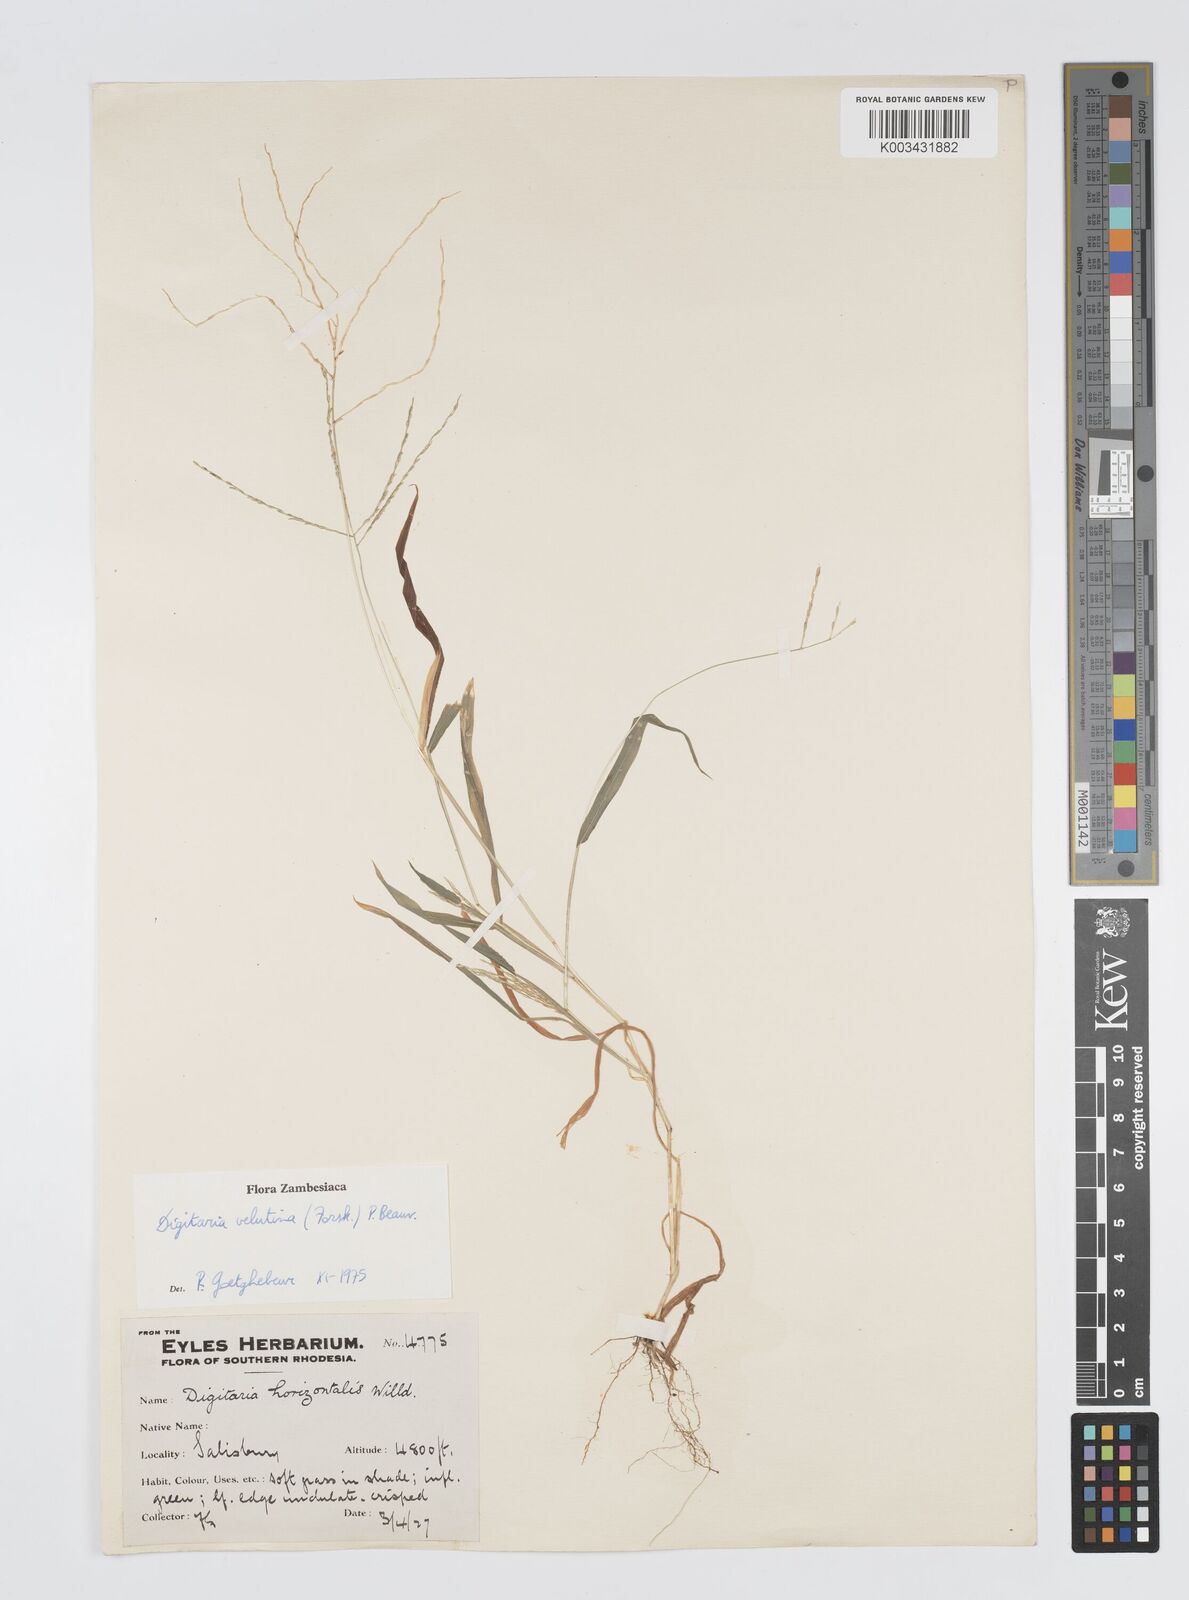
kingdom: Plantae
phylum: Tracheophyta
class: Liliopsida
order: Poales
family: Poaceae
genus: Digitaria
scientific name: Digitaria velutina
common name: Long-plume finger grass
